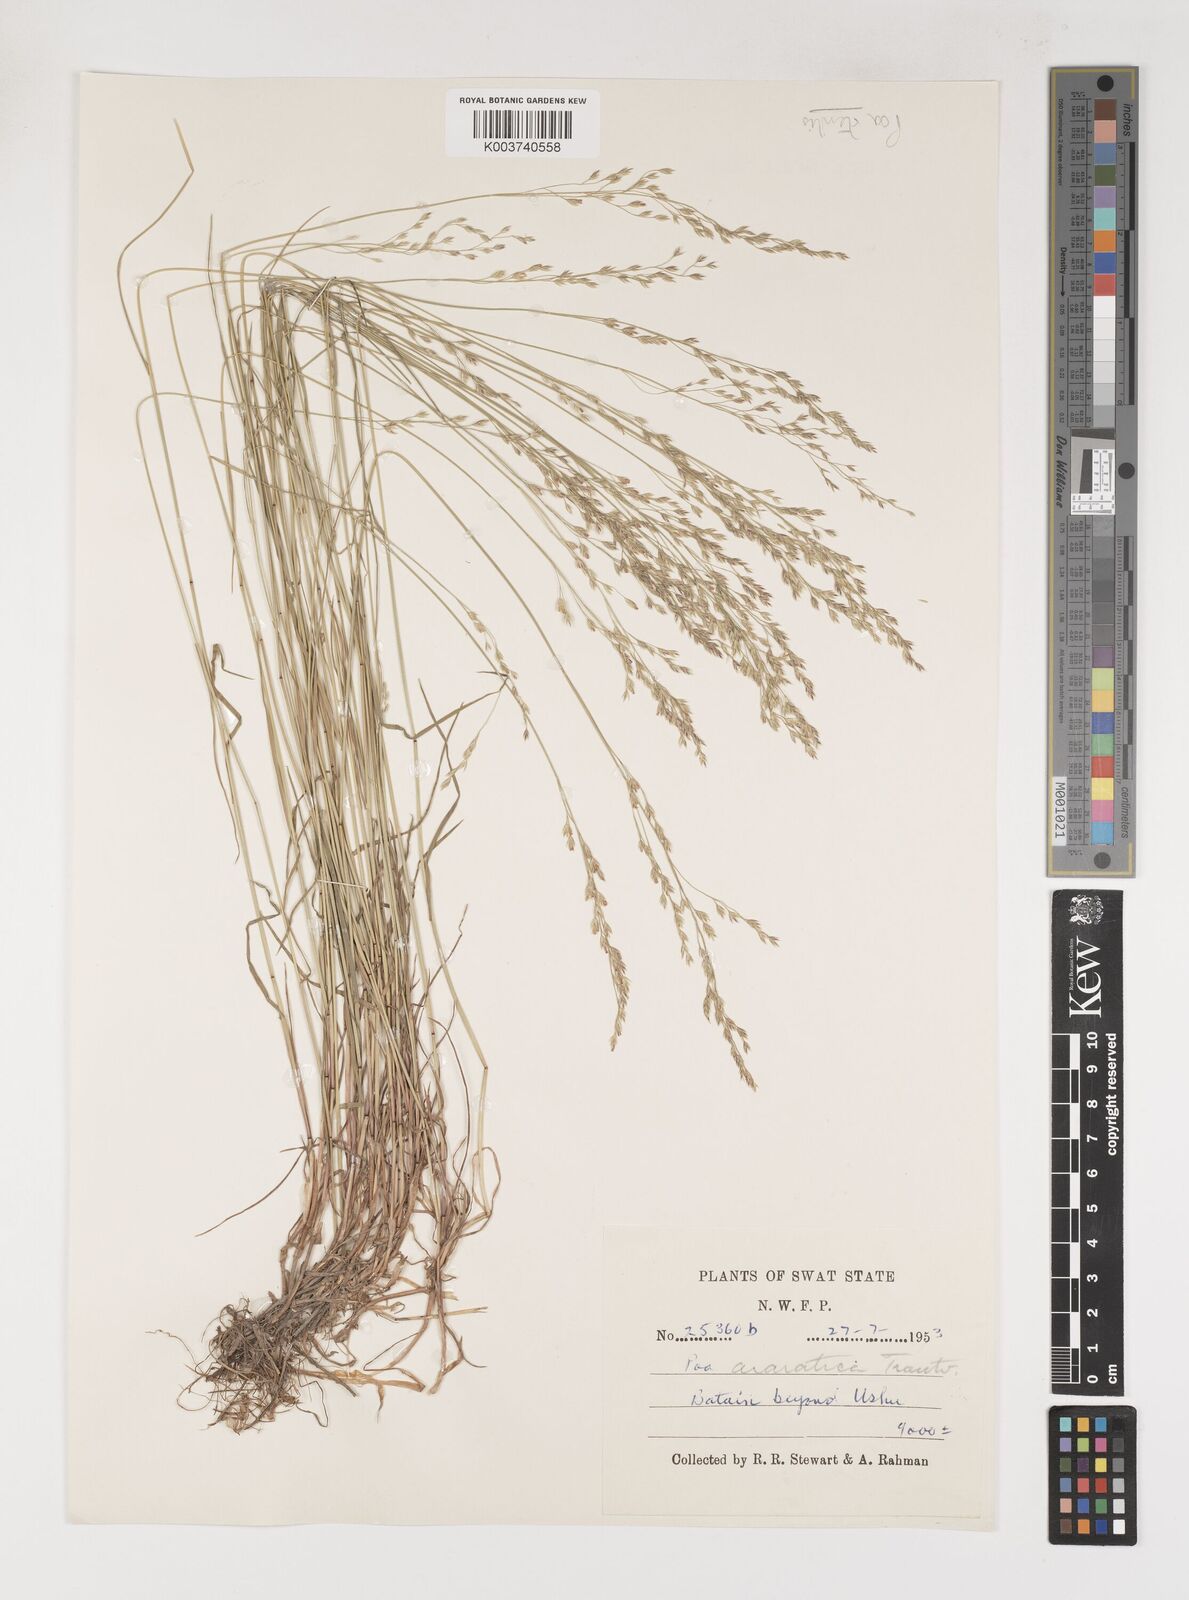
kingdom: Plantae
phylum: Tracheophyta
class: Liliopsida
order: Poales
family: Poaceae
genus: Poa
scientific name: Poa sterilis
